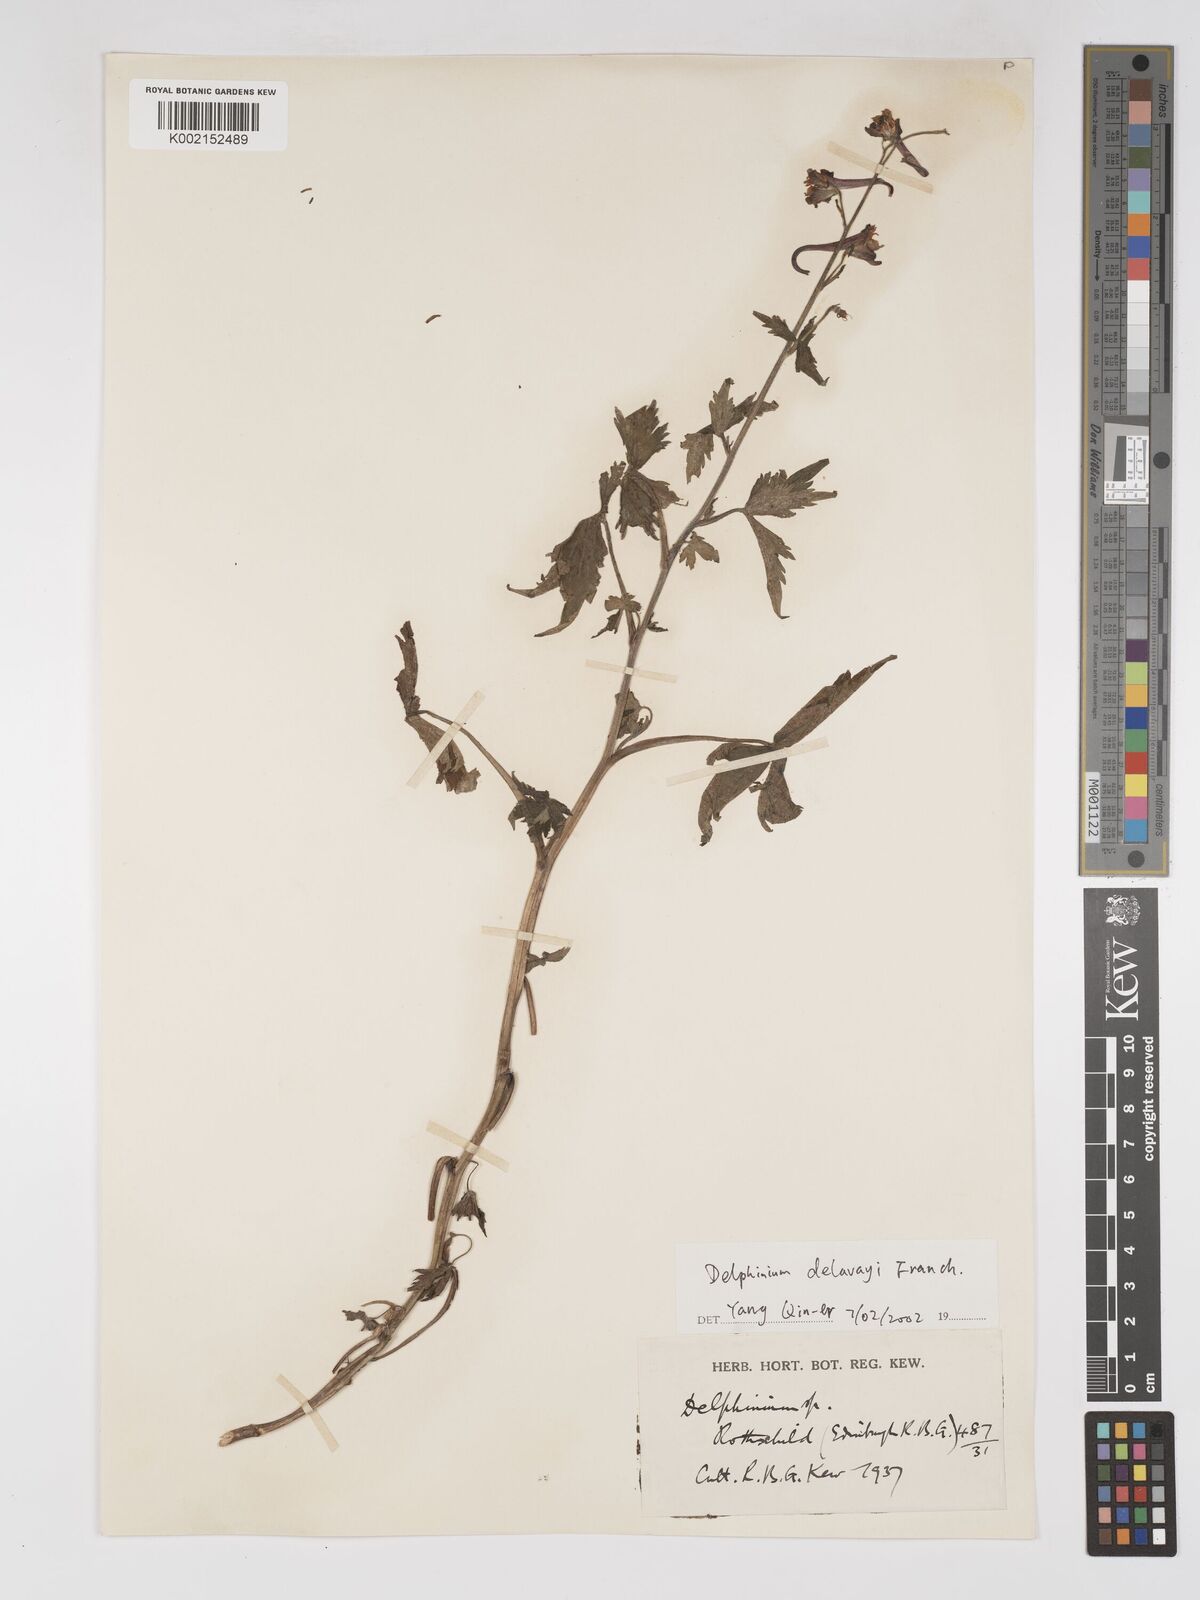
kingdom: Plantae
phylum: Tracheophyta
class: Magnoliopsida
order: Ranunculales
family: Ranunculaceae
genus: Delphinium
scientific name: Delphinium delavayi
